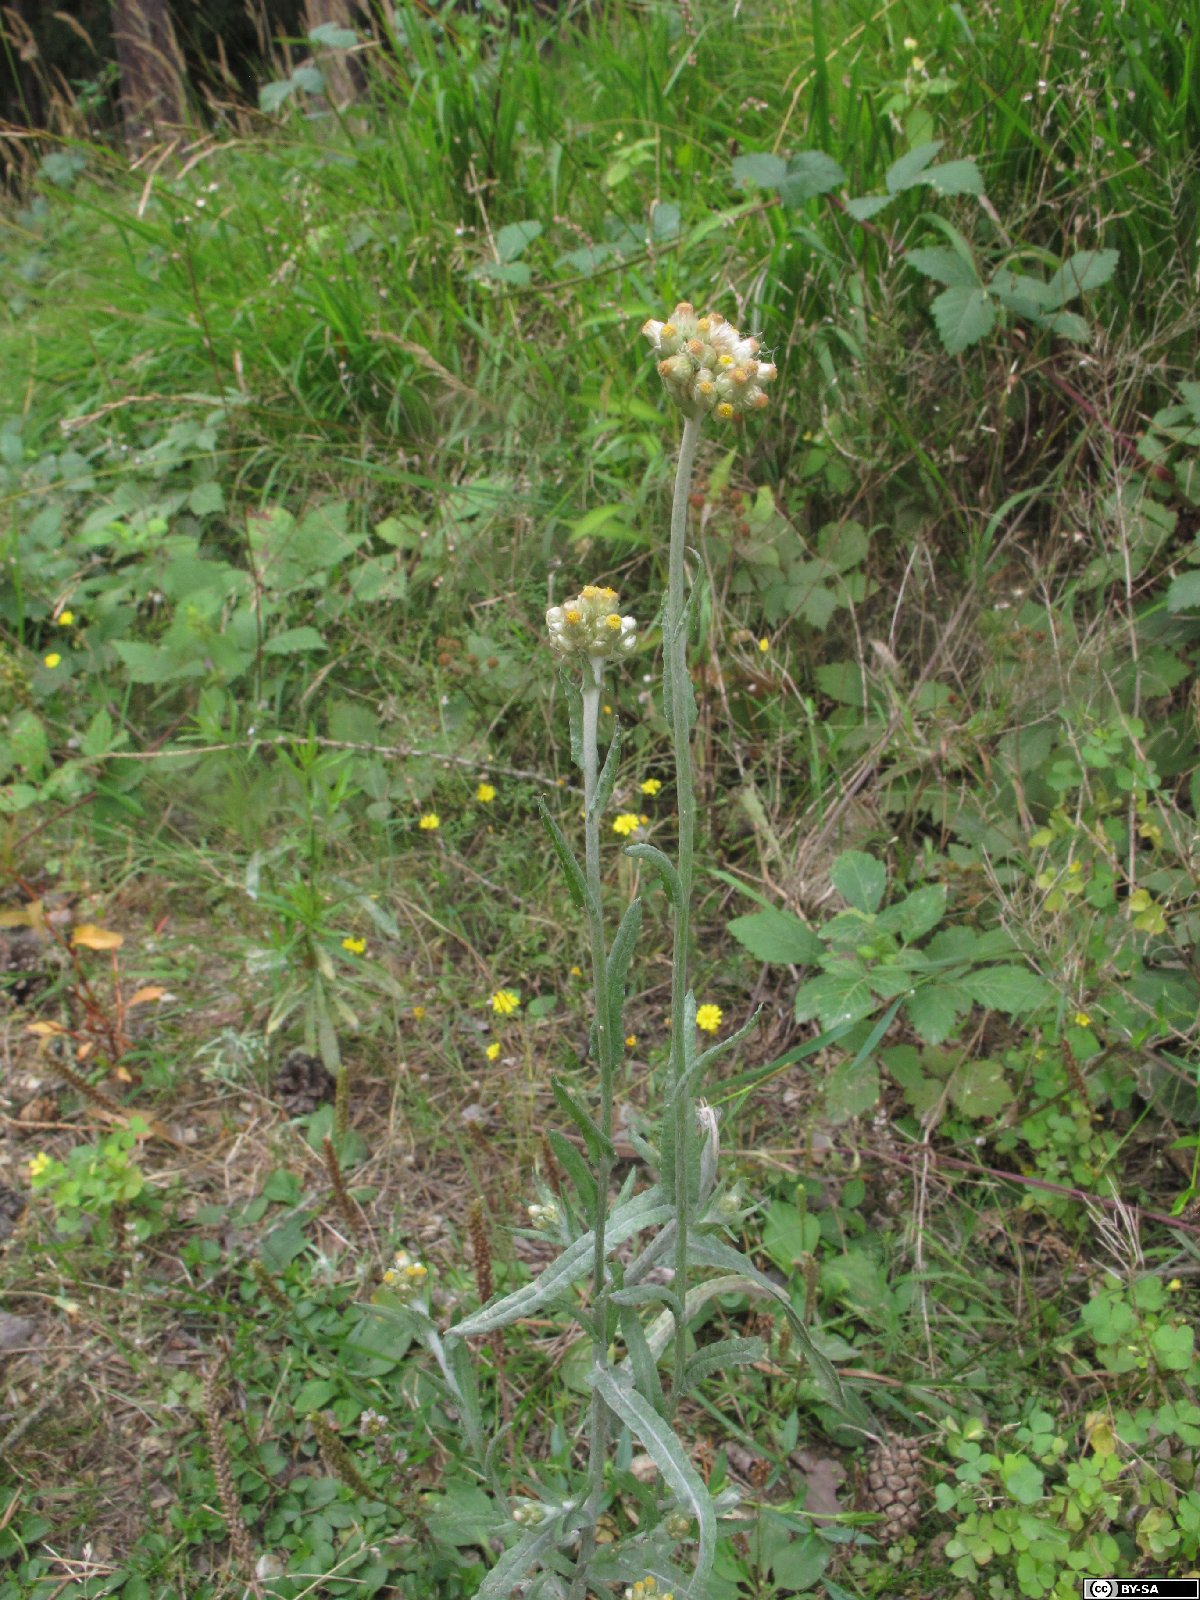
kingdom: Plantae
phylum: Tracheophyta
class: Magnoliopsida
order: Asterales
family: Asteraceae
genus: Helichrysum
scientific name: Helichrysum luteoalbum
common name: Daisy
